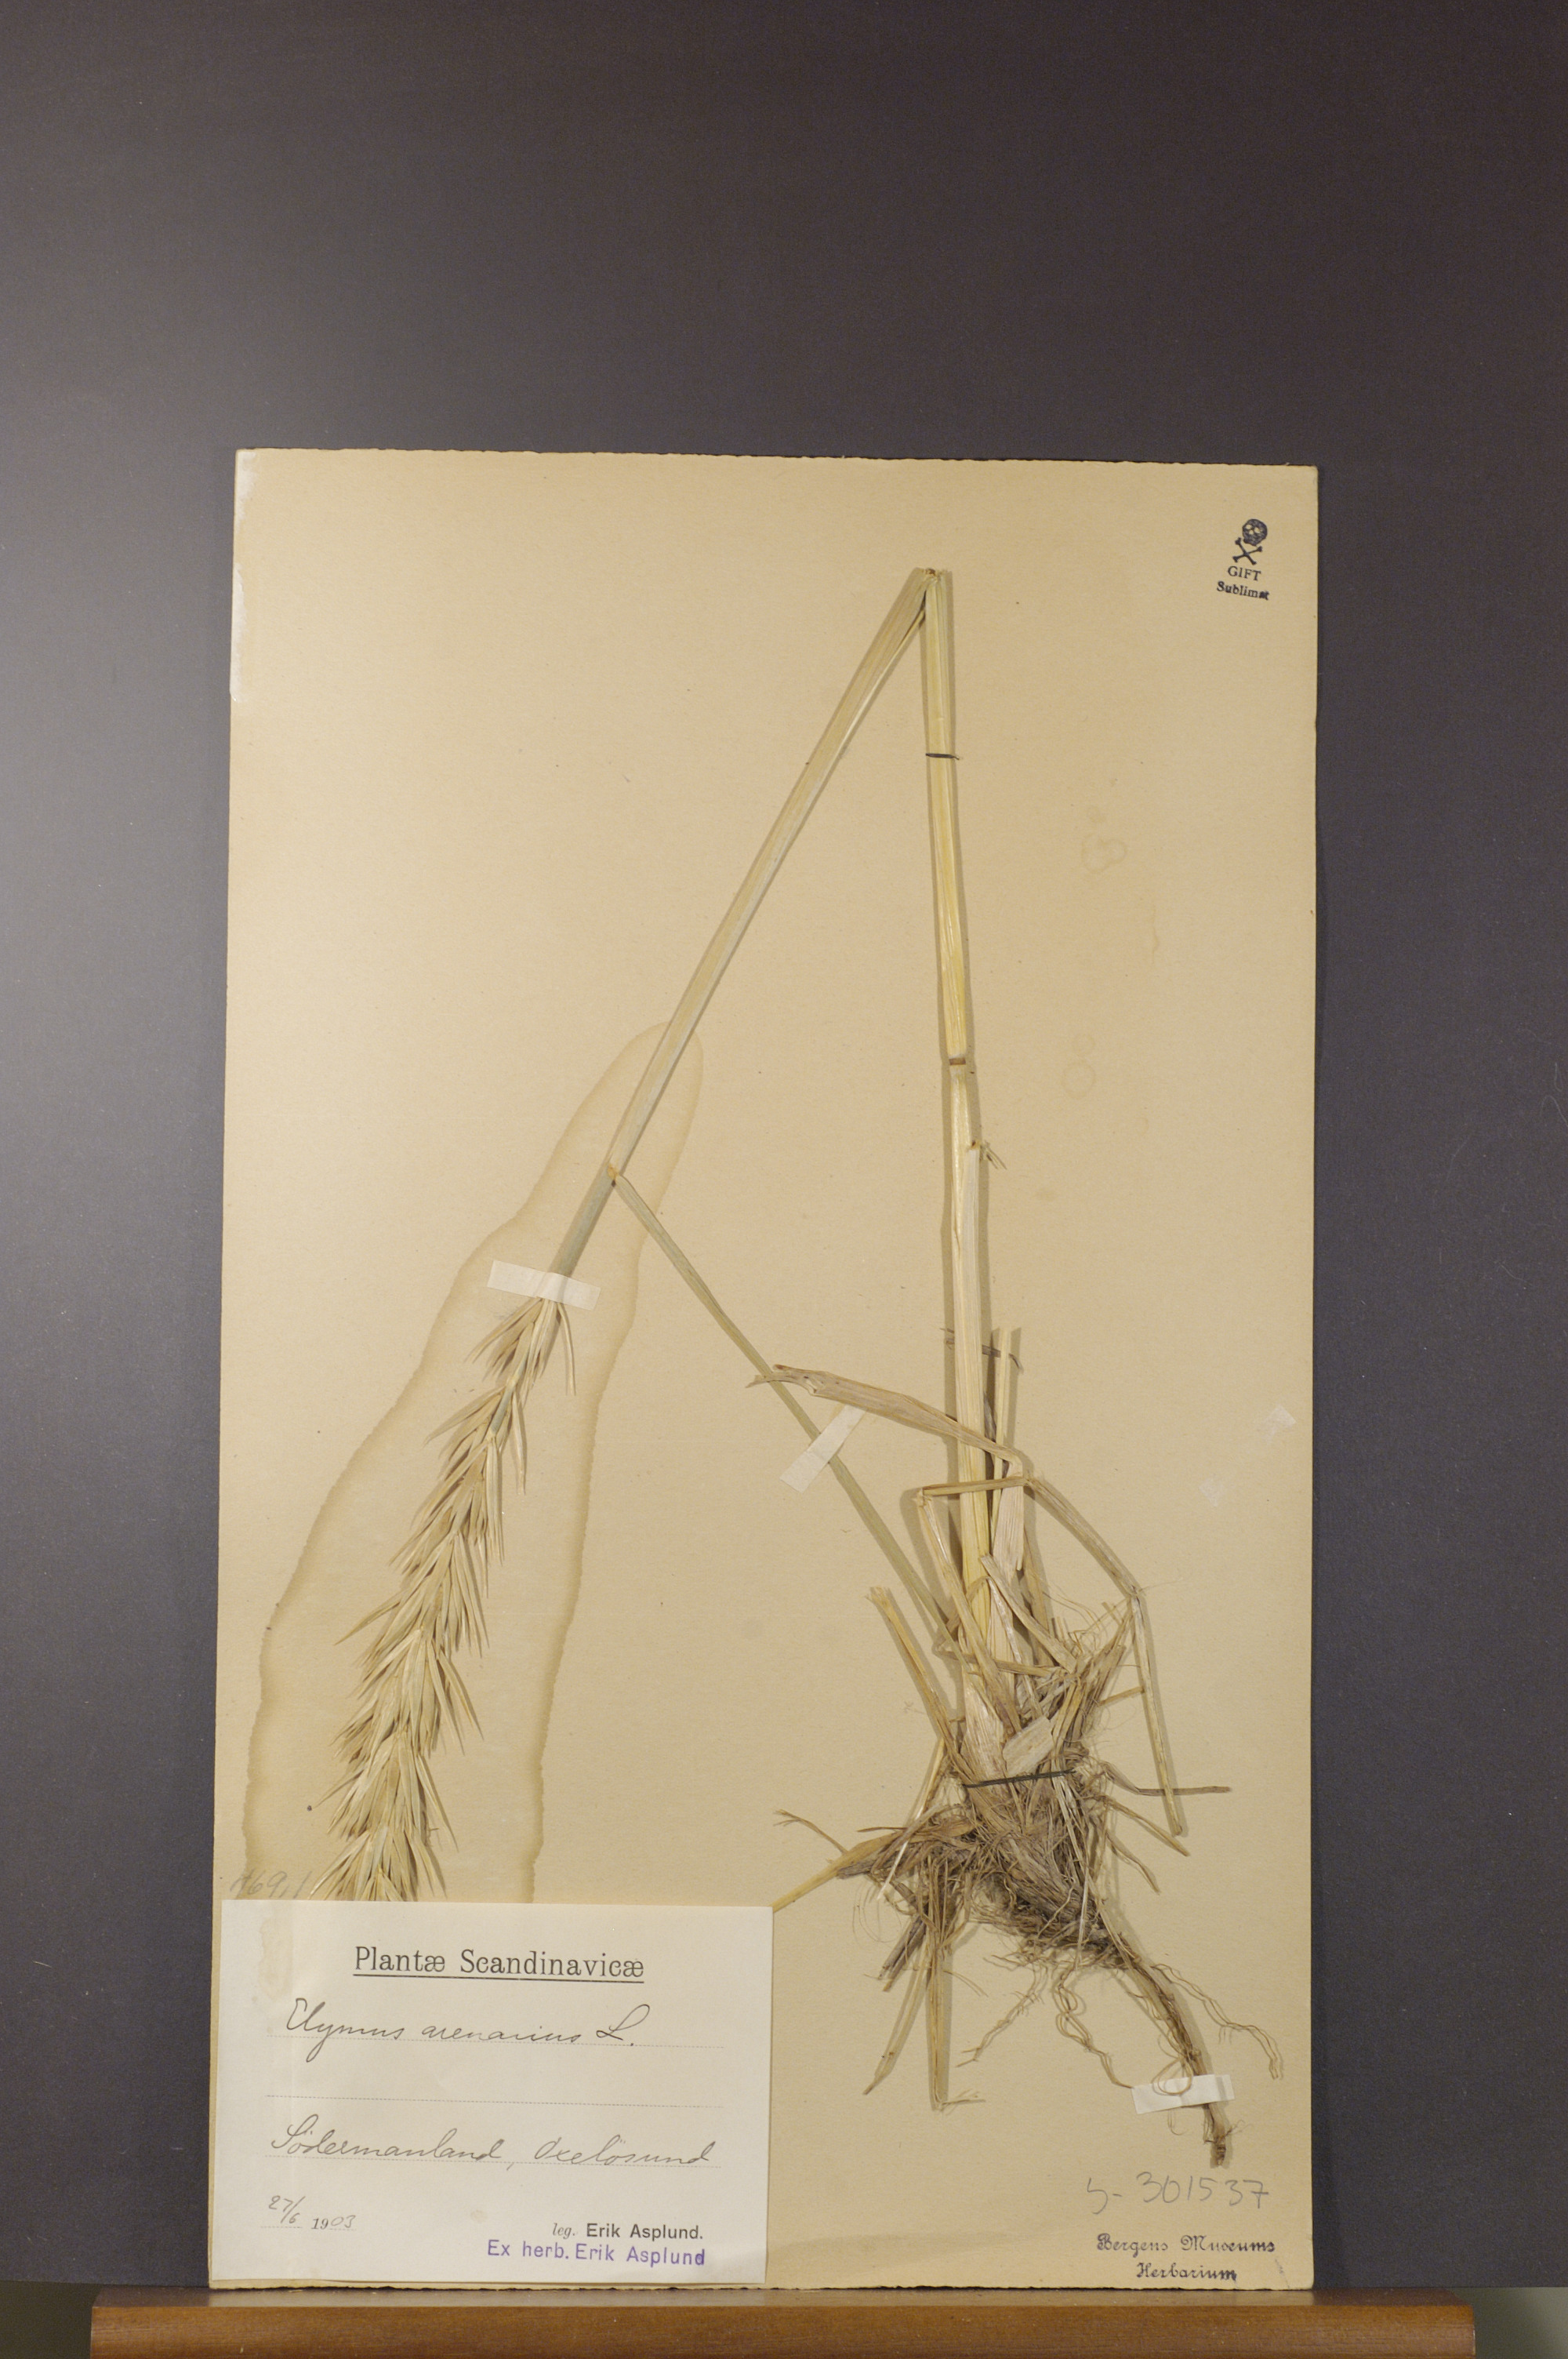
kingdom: Plantae
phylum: Tracheophyta
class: Liliopsida
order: Poales
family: Poaceae
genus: Leymus
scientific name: Leymus arenarius
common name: Lyme-grass
